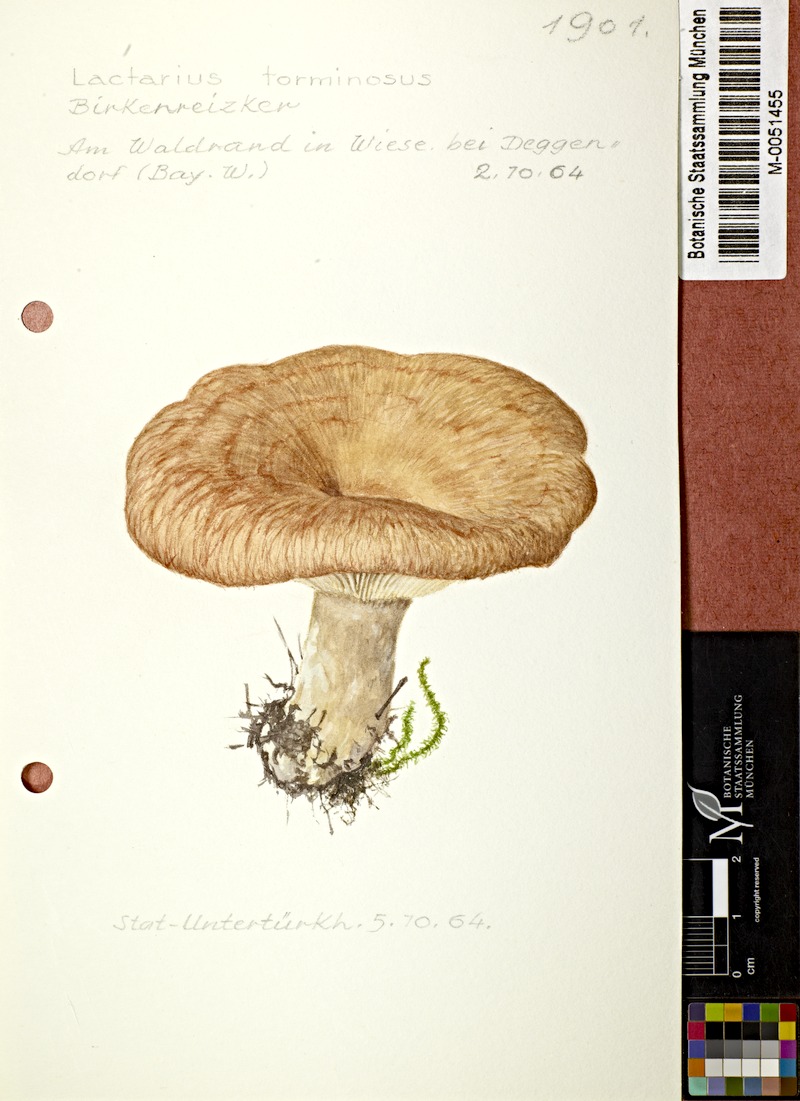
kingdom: Fungi
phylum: Basidiomycota
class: Agaricomycetes
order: Russulales
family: Russulaceae
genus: Lactarius
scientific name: Lactarius torminosus
